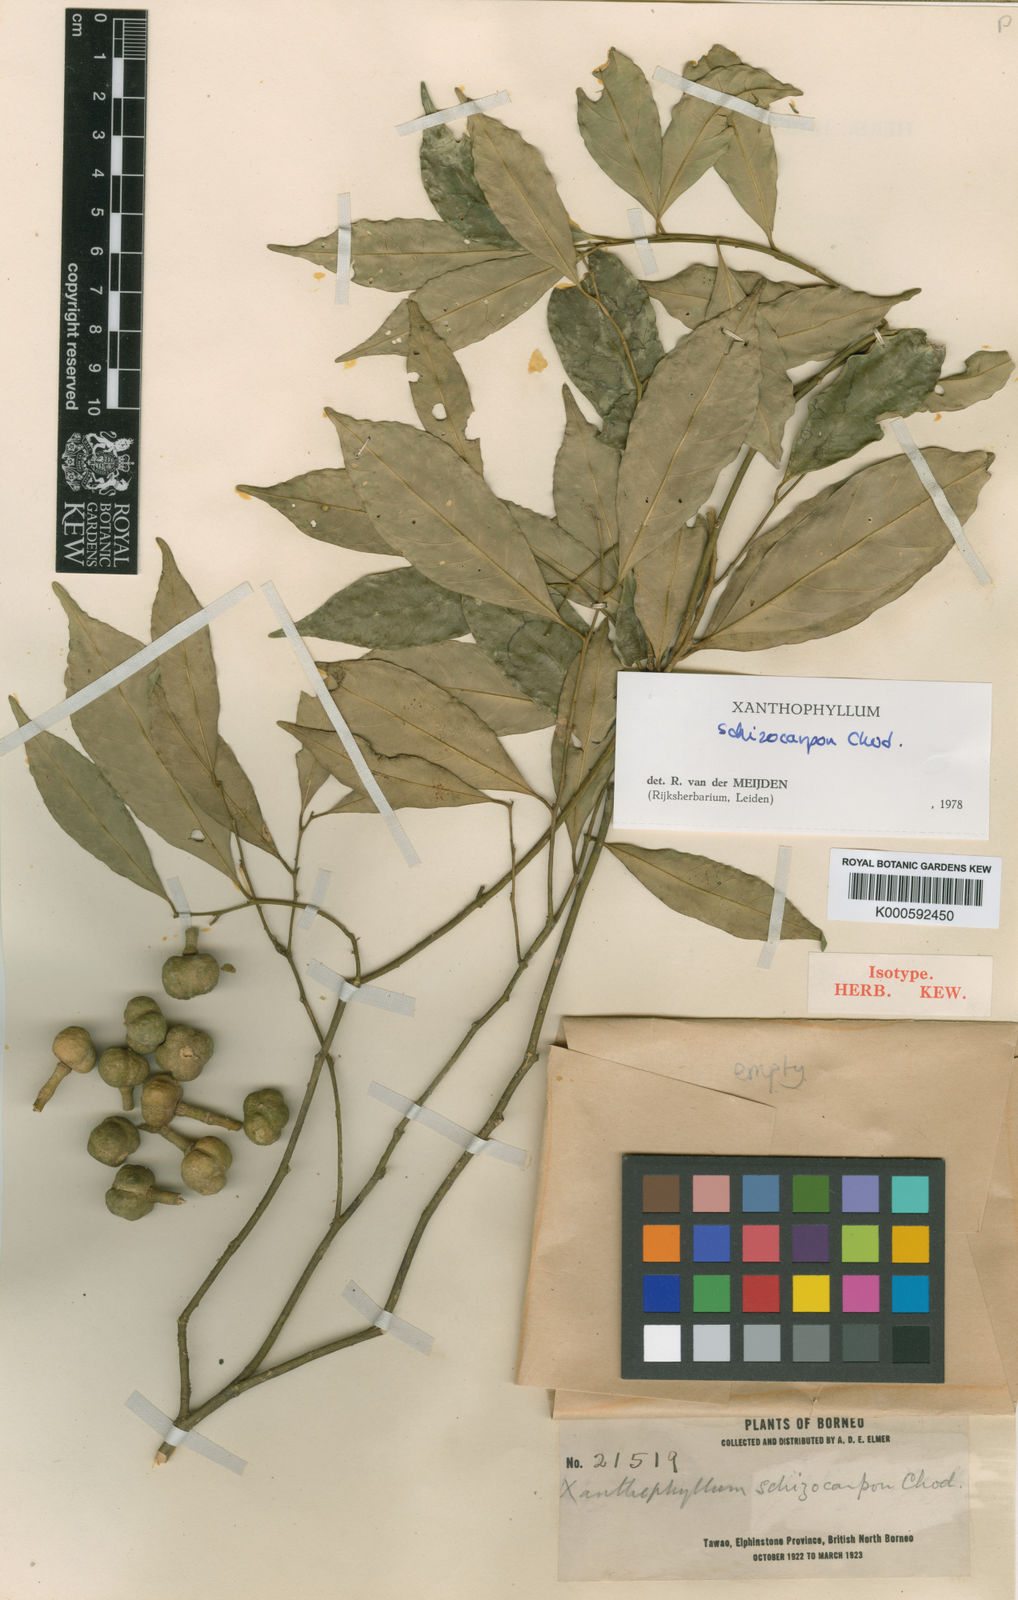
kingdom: Plantae
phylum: Tracheophyta
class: Magnoliopsida
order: Fabales
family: Polygalaceae
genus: Xanthophyllum
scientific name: Xanthophyllum
